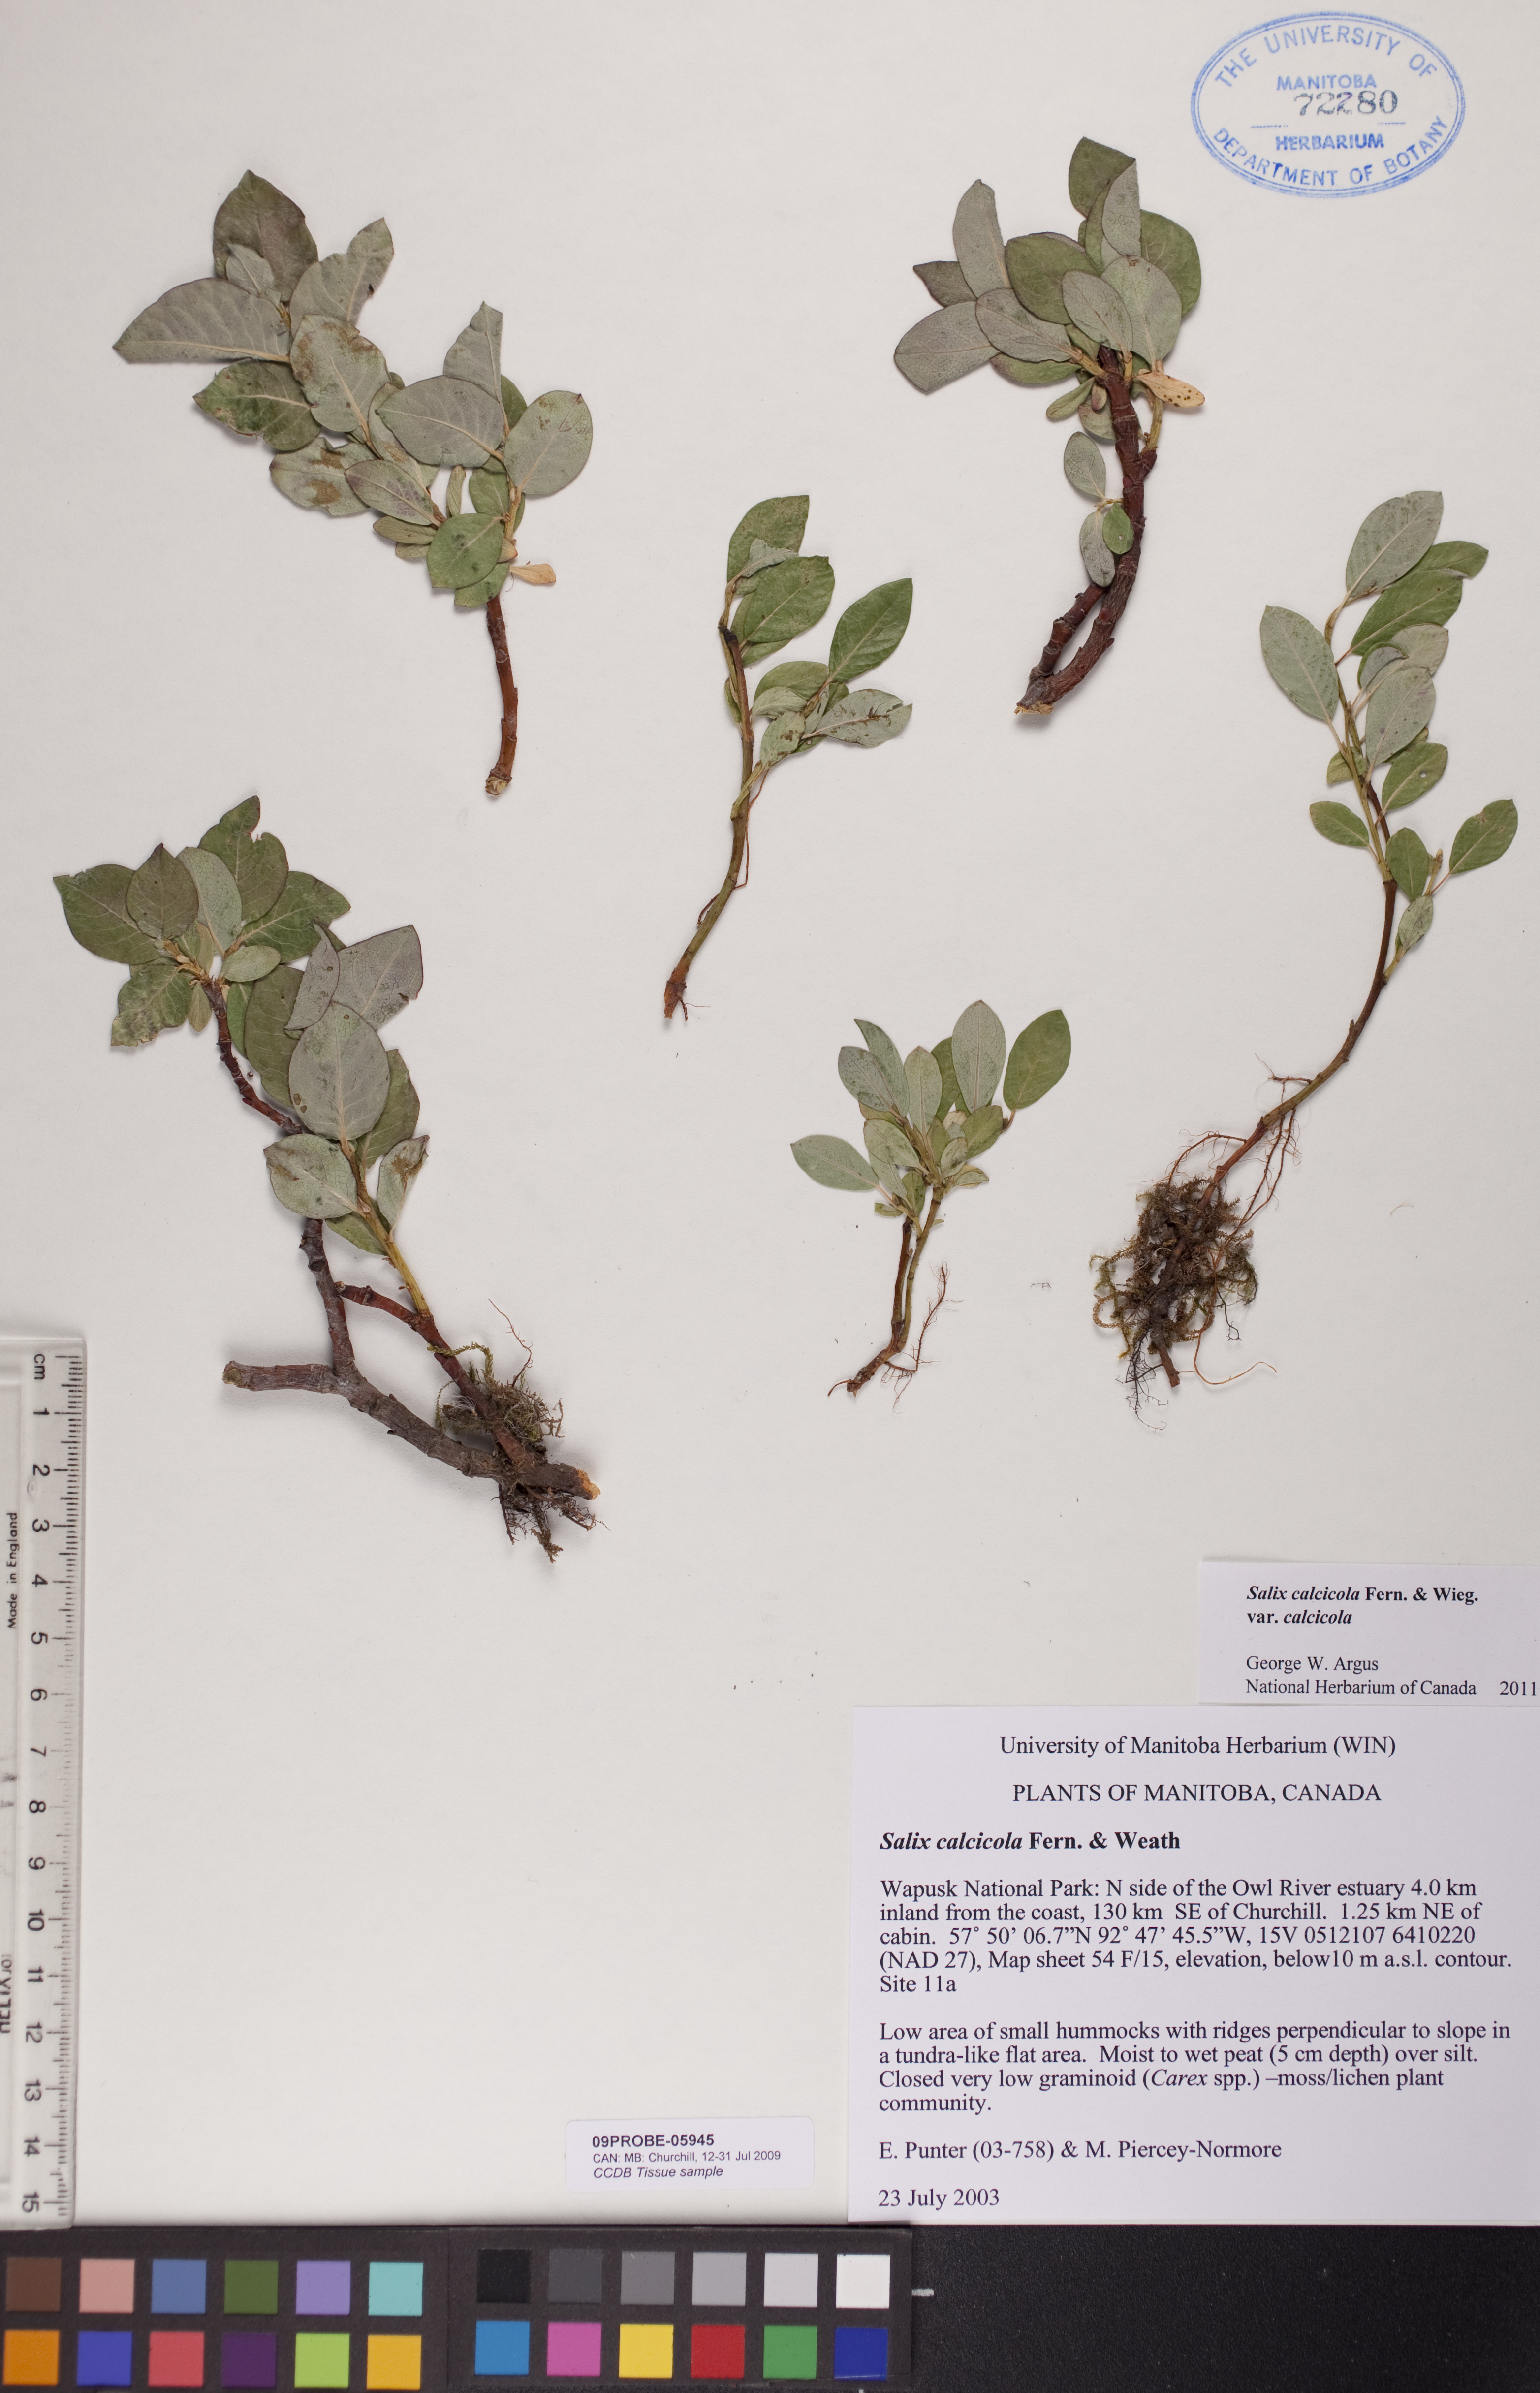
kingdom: Plantae
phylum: Tracheophyta
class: Magnoliopsida
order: Malpighiales
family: Salicaceae
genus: Salix
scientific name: Salix calcicola
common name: Calcareous willow
